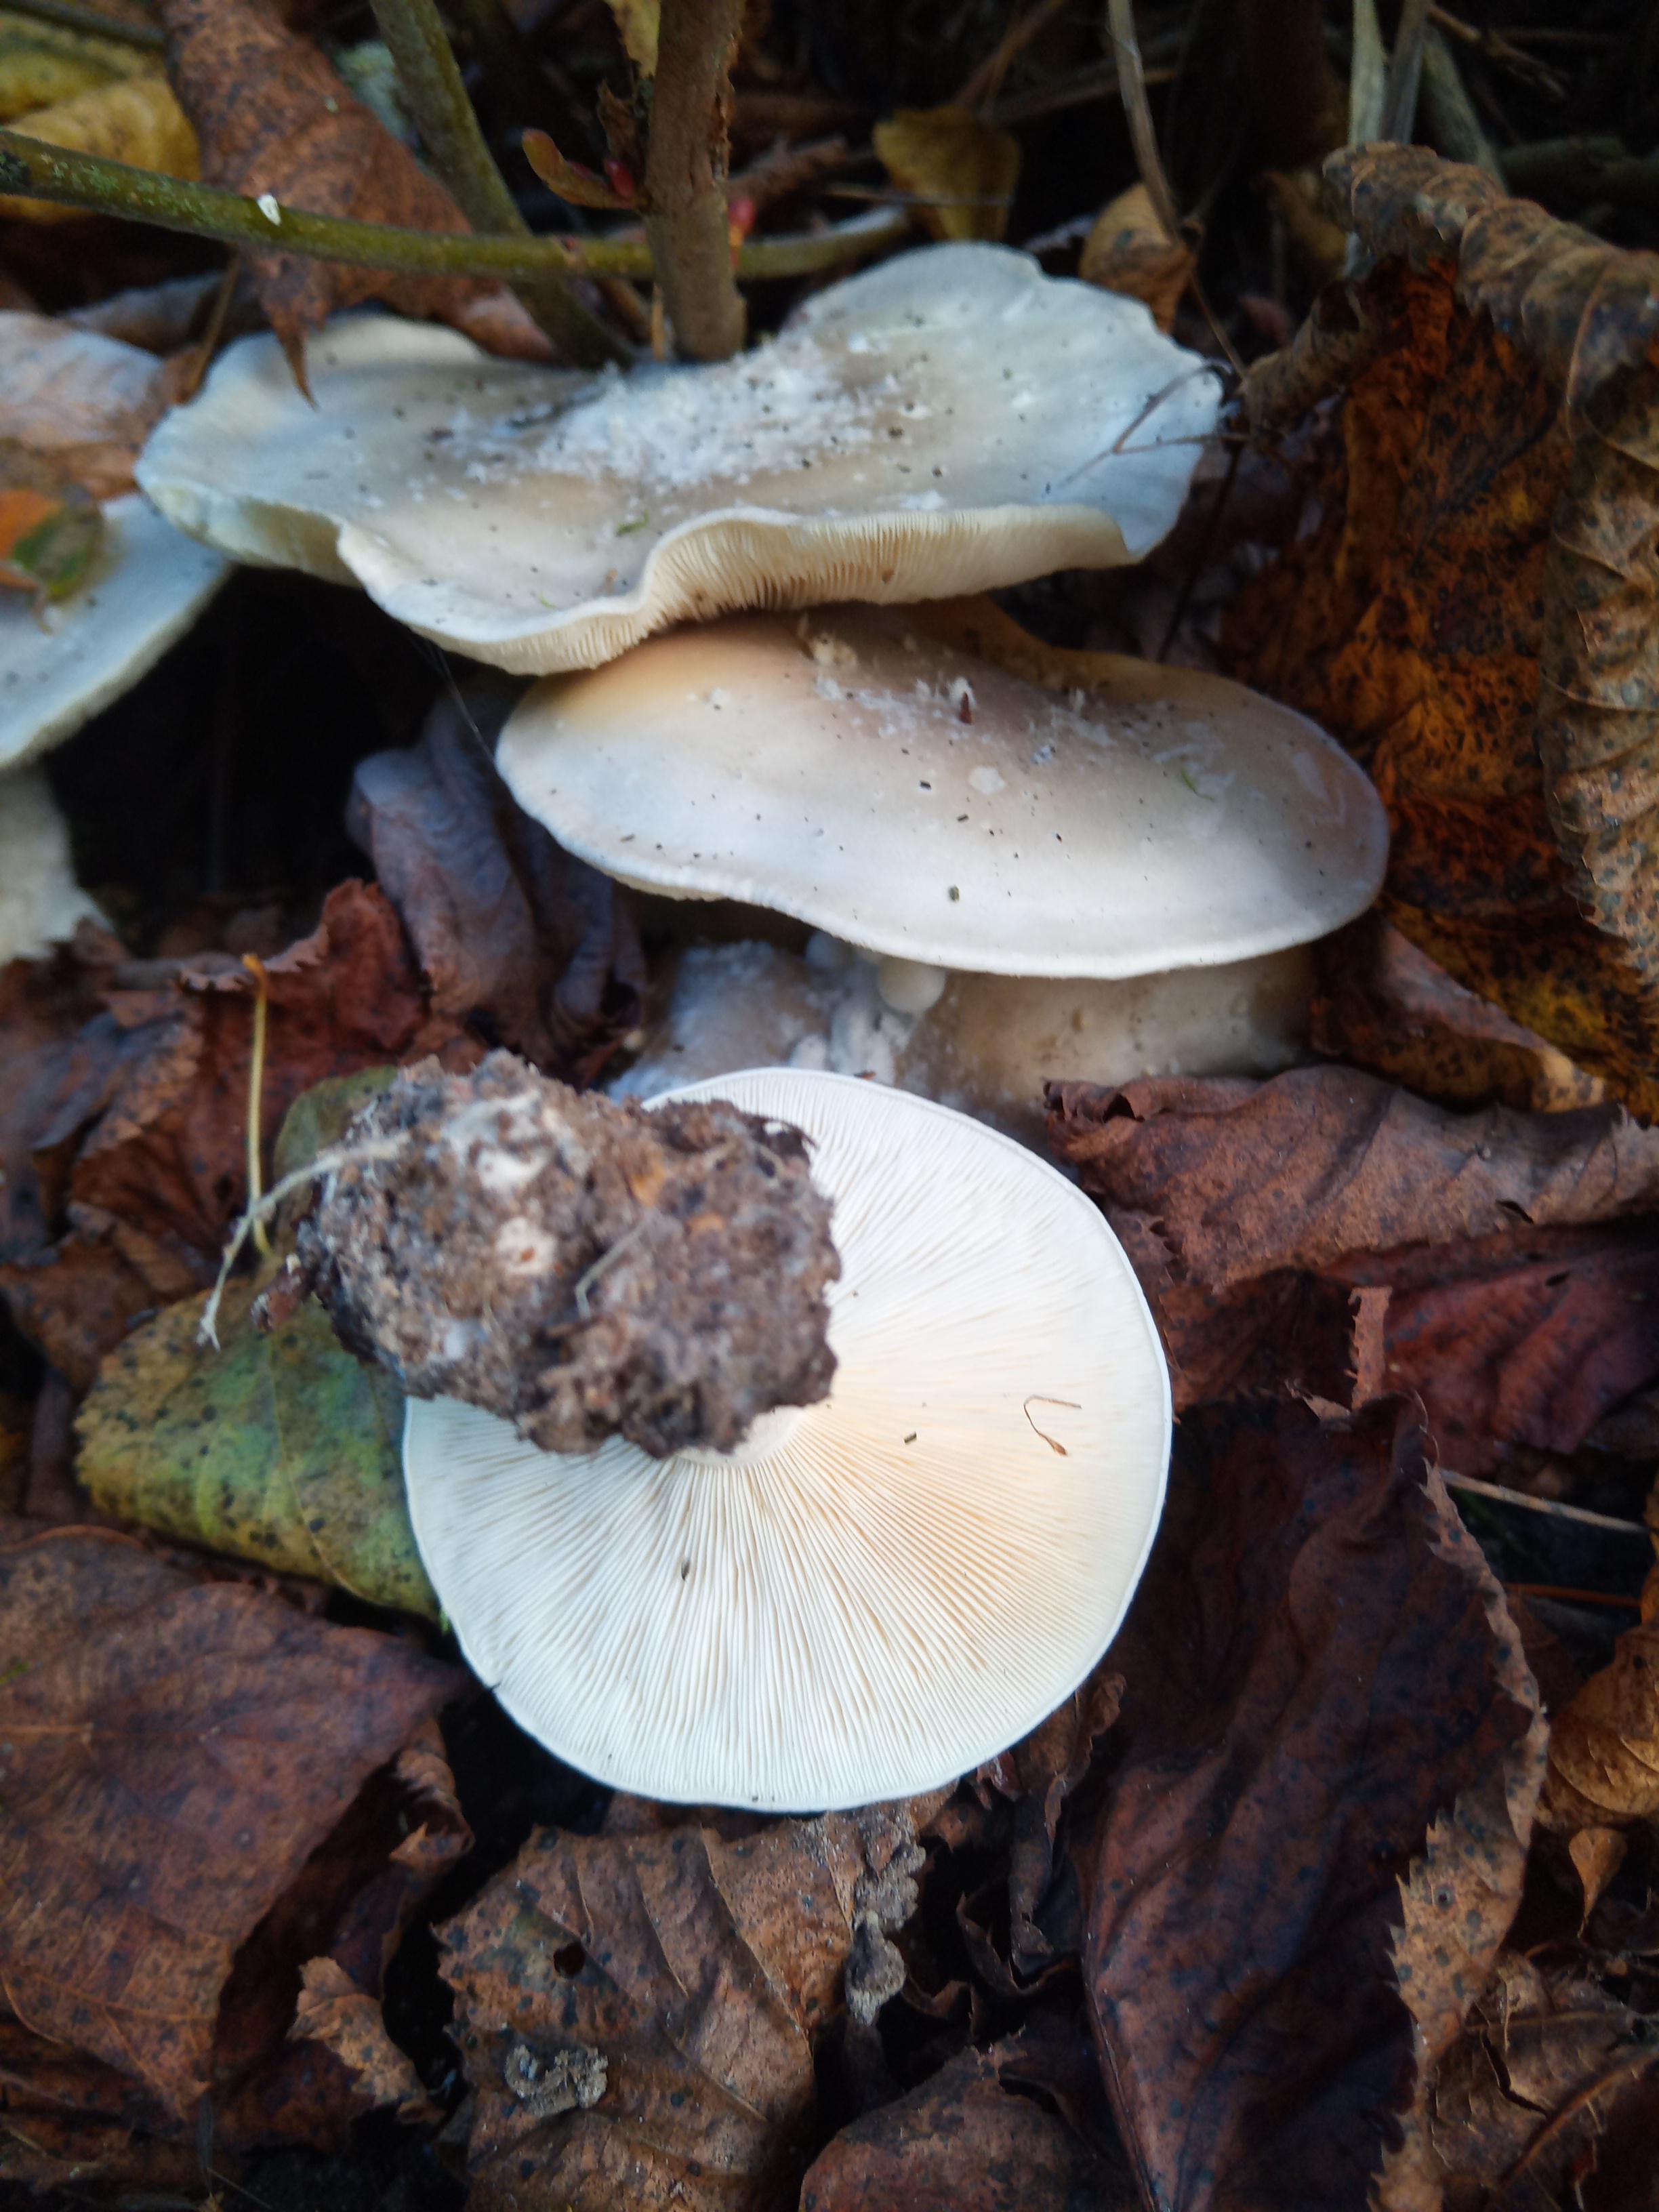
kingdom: Fungi
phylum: Basidiomycota
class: Agaricomycetes
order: Agaricales
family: Tricholomataceae
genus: Clitocybe
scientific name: Clitocybe nebularis
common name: tåge-tragthat
